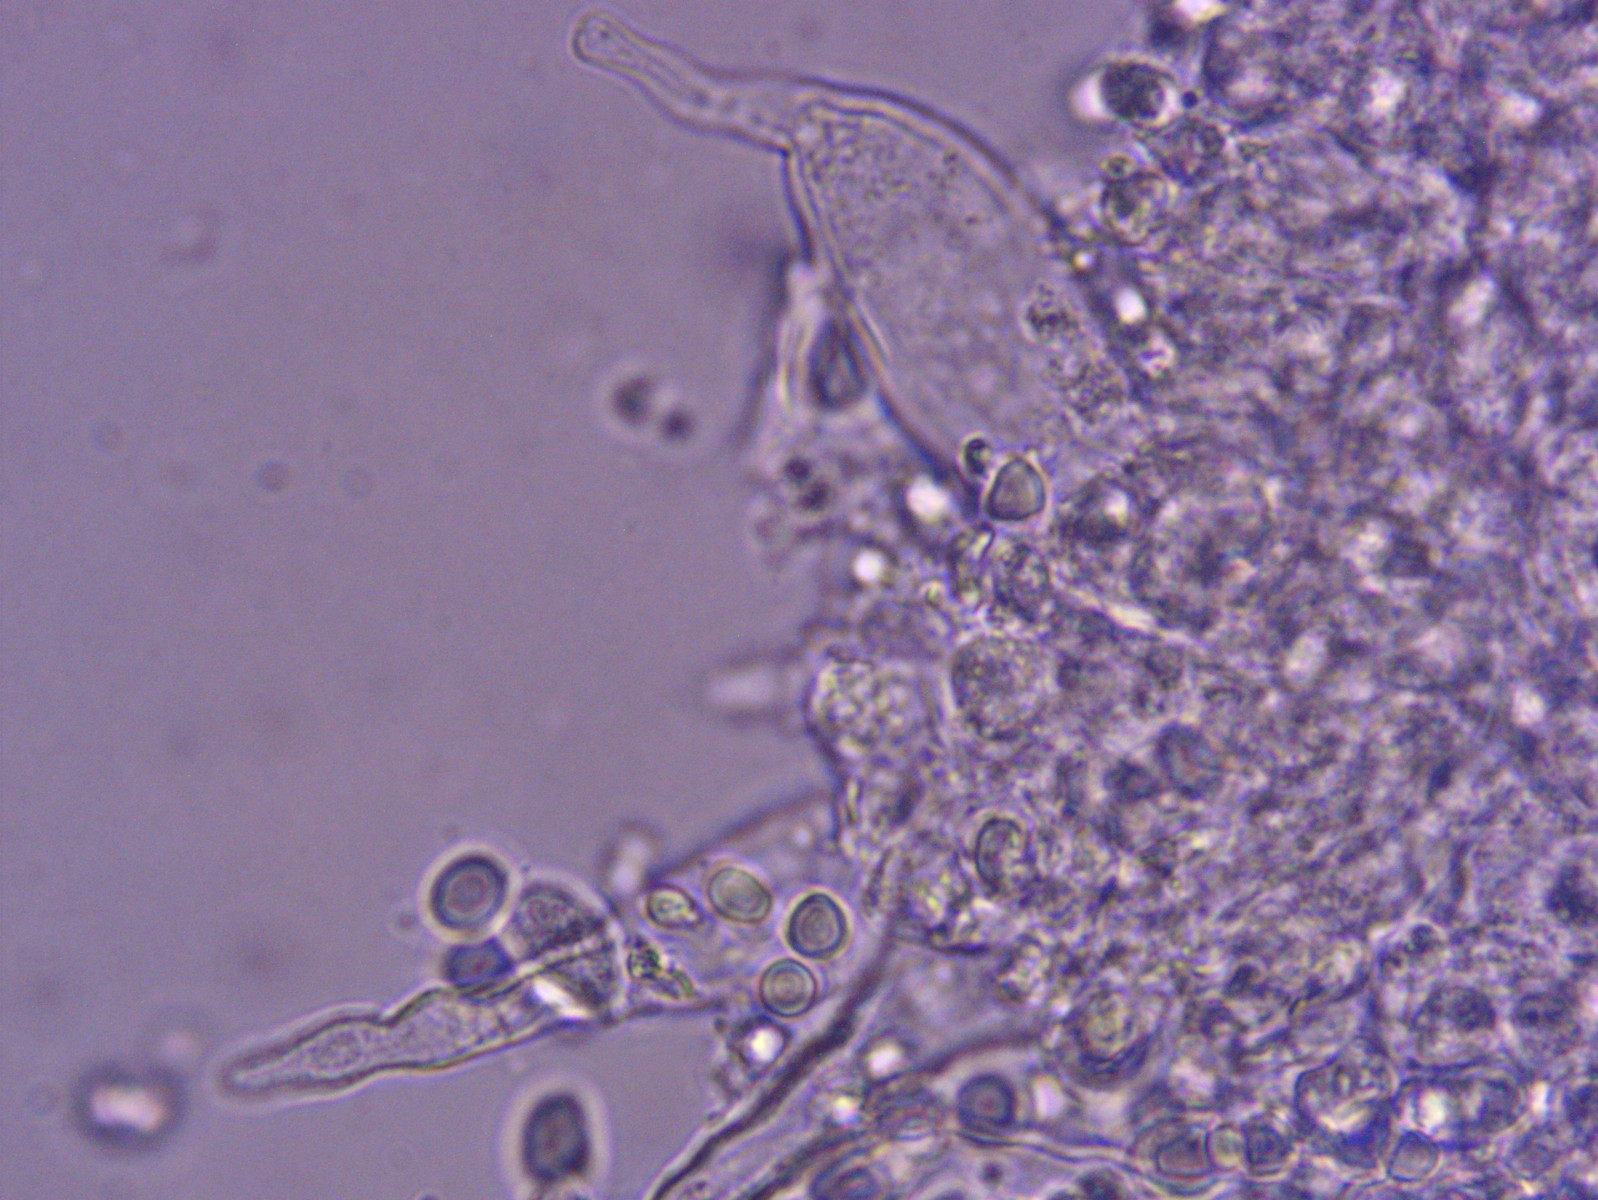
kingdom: Fungi
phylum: Basidiomycota
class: Agaricomycetes
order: Agaricales
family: Mycenaceae
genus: Mycena
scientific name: Mycena aetites
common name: plæne-huesvamp
